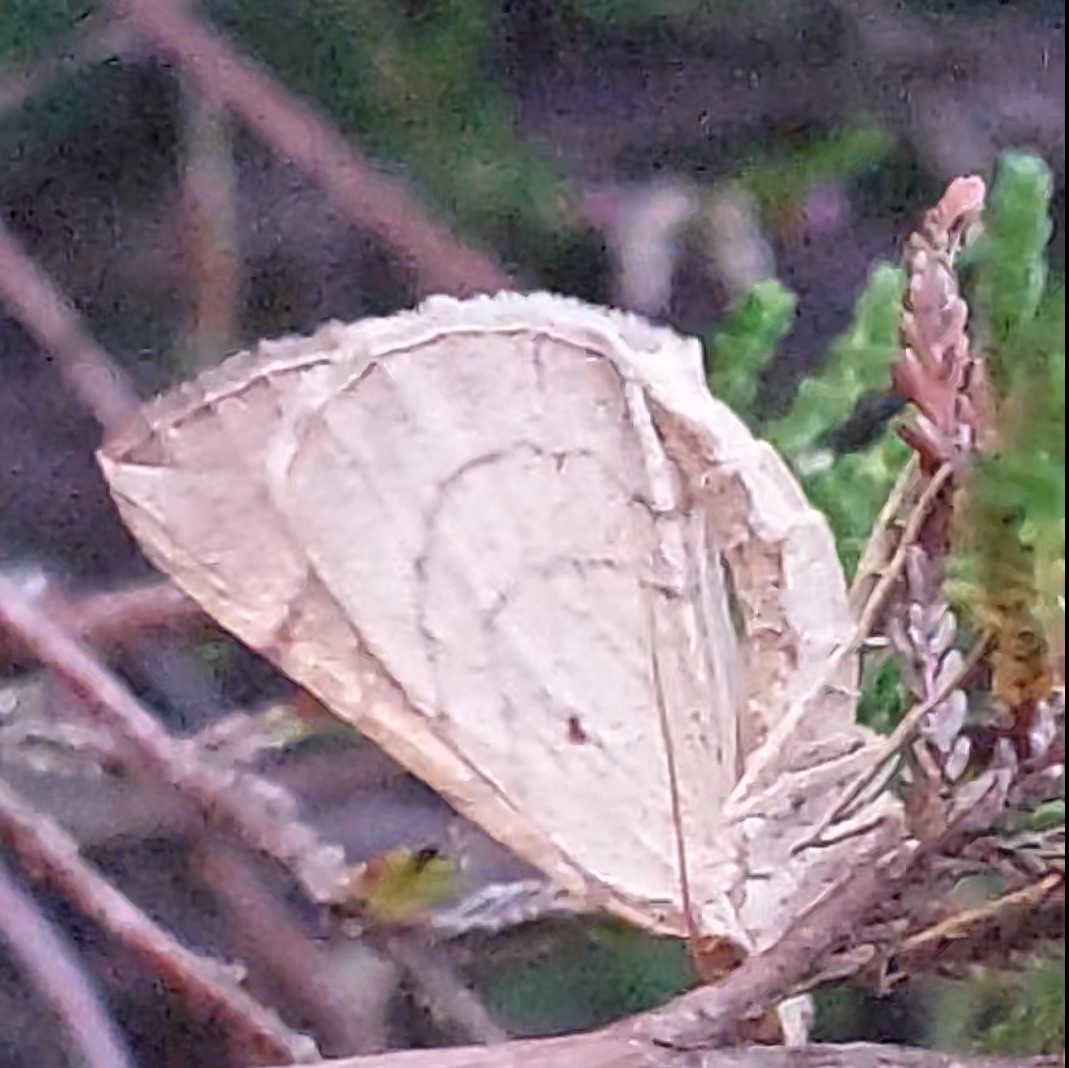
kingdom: Animalia
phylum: Arthropoda
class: Insecta
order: Lepidoptera
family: Geometridae
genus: Eulithis
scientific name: Eulithis testata
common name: Pile-havemåler
